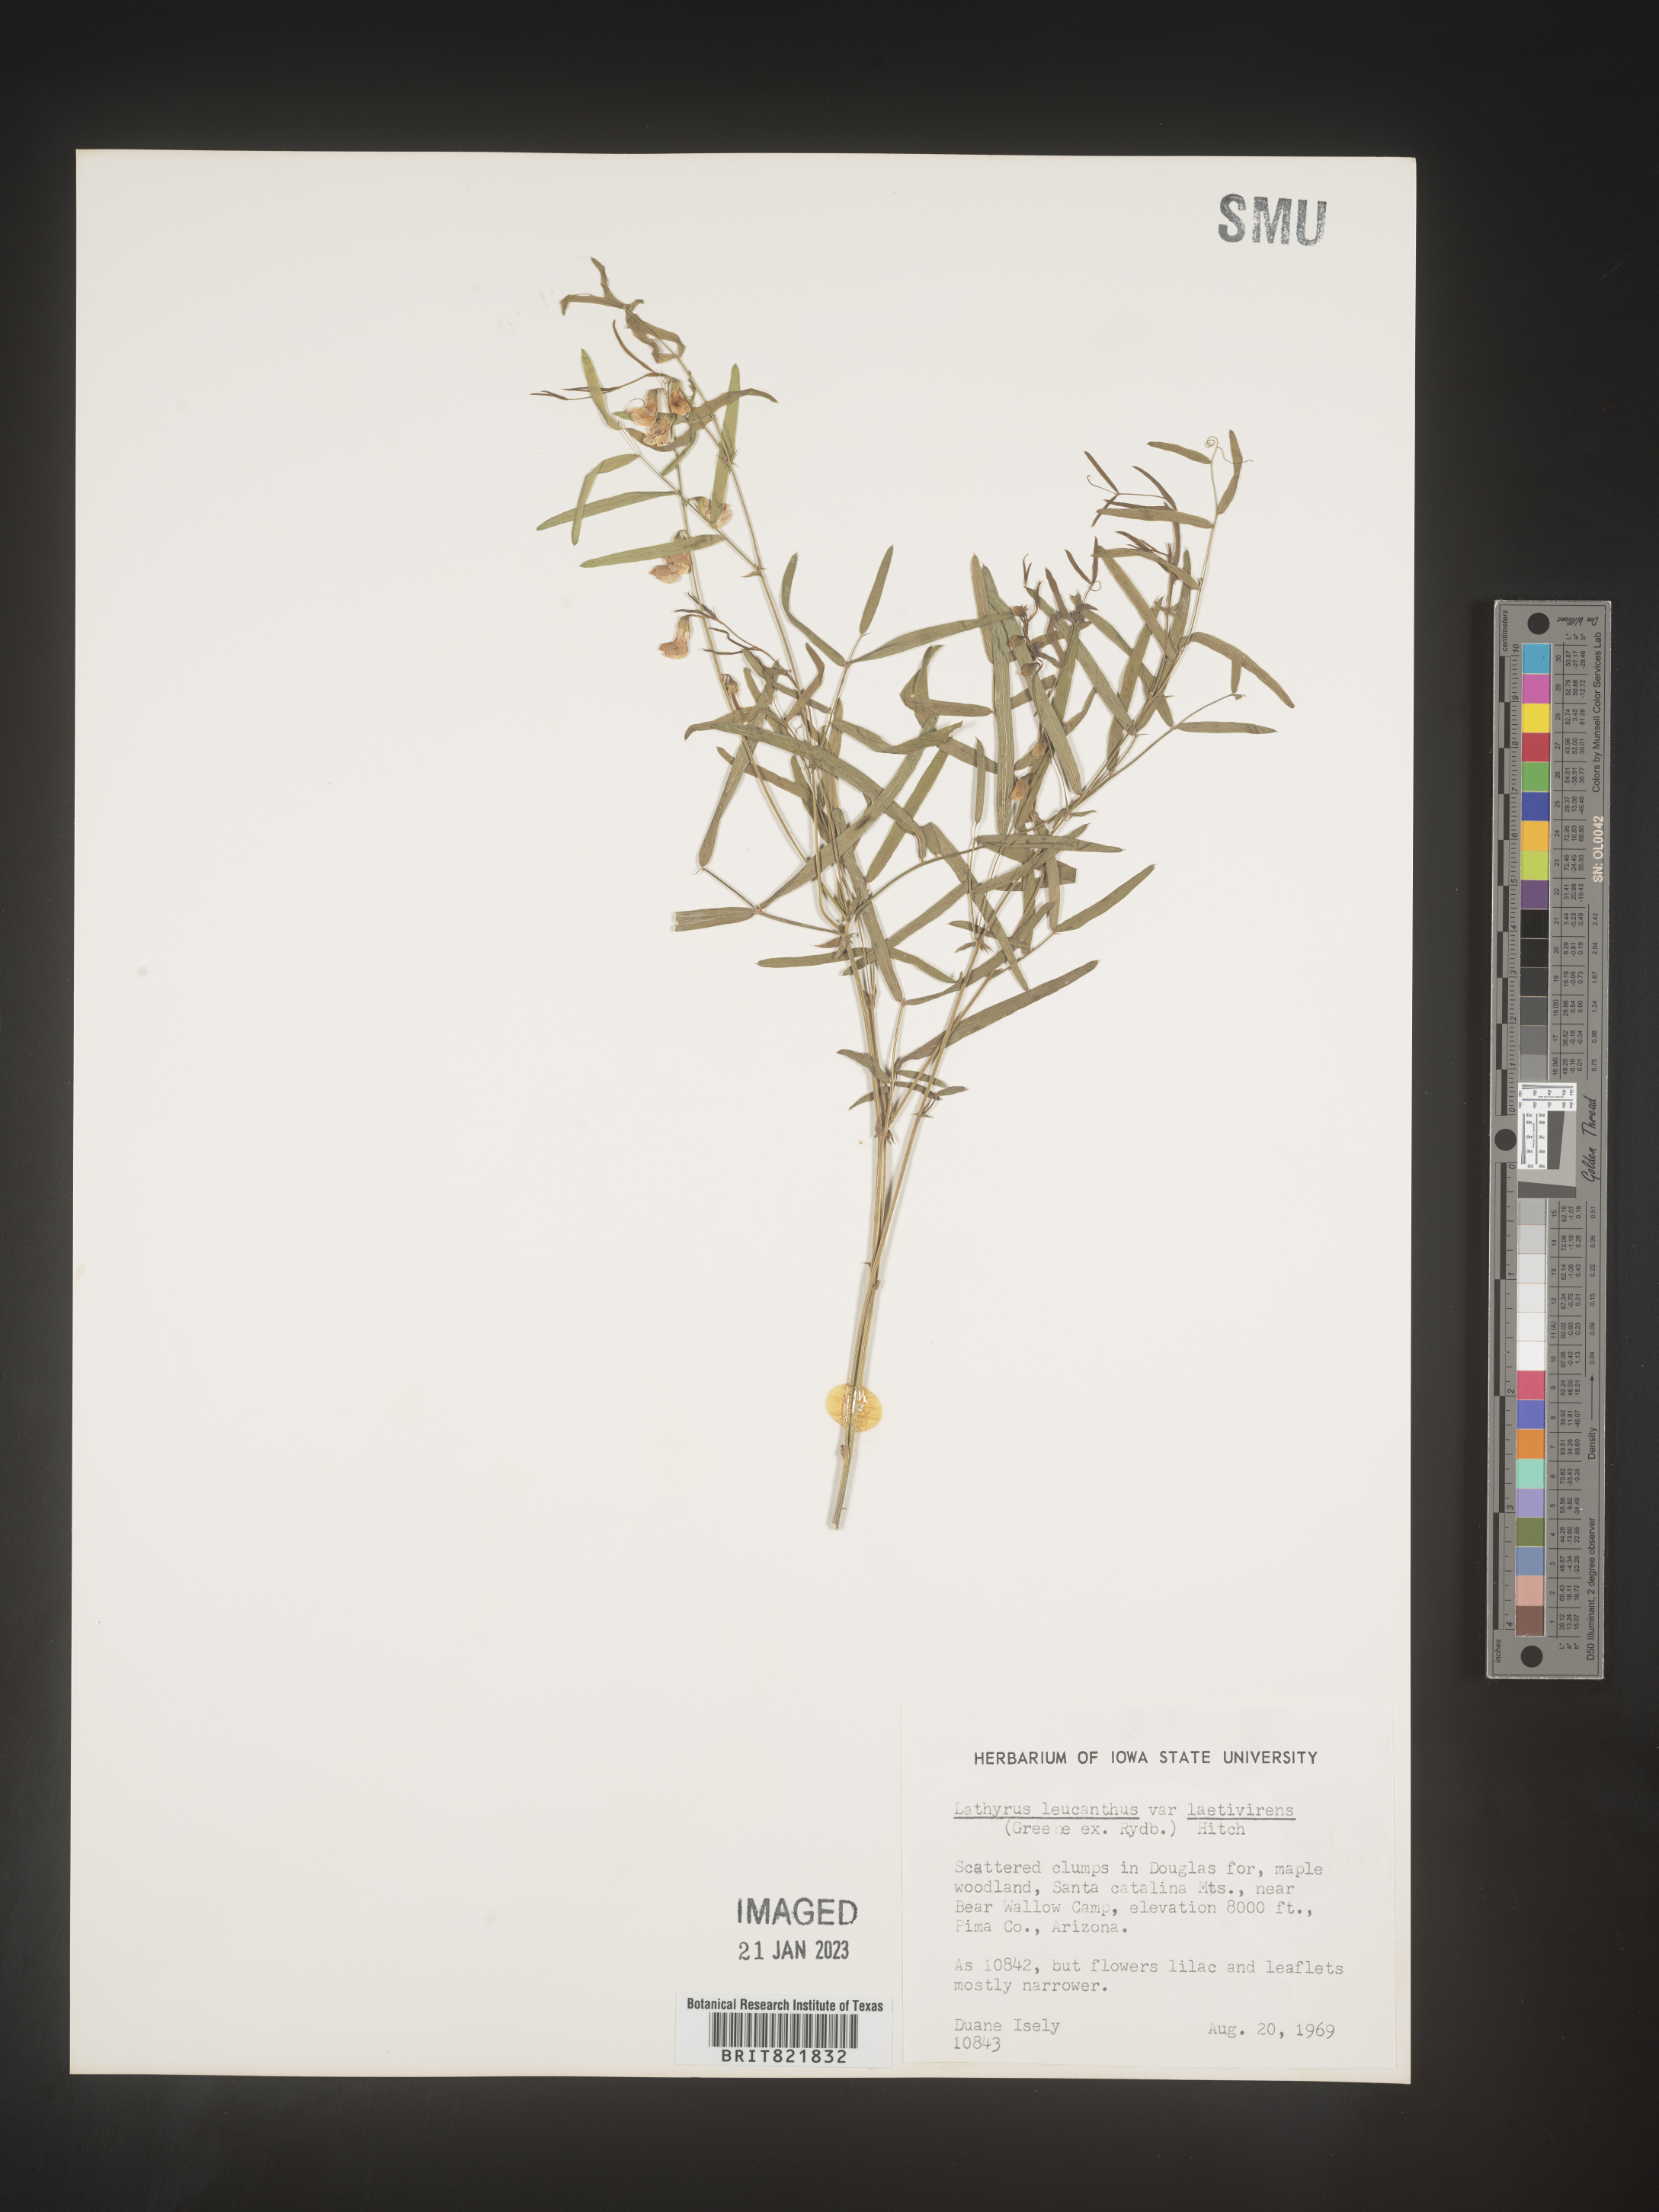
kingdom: Plantae
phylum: Tracheophyta
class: Magnoliopsida
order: Fabales
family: Fabaceae
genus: Lathyrus
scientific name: Lathyrus
